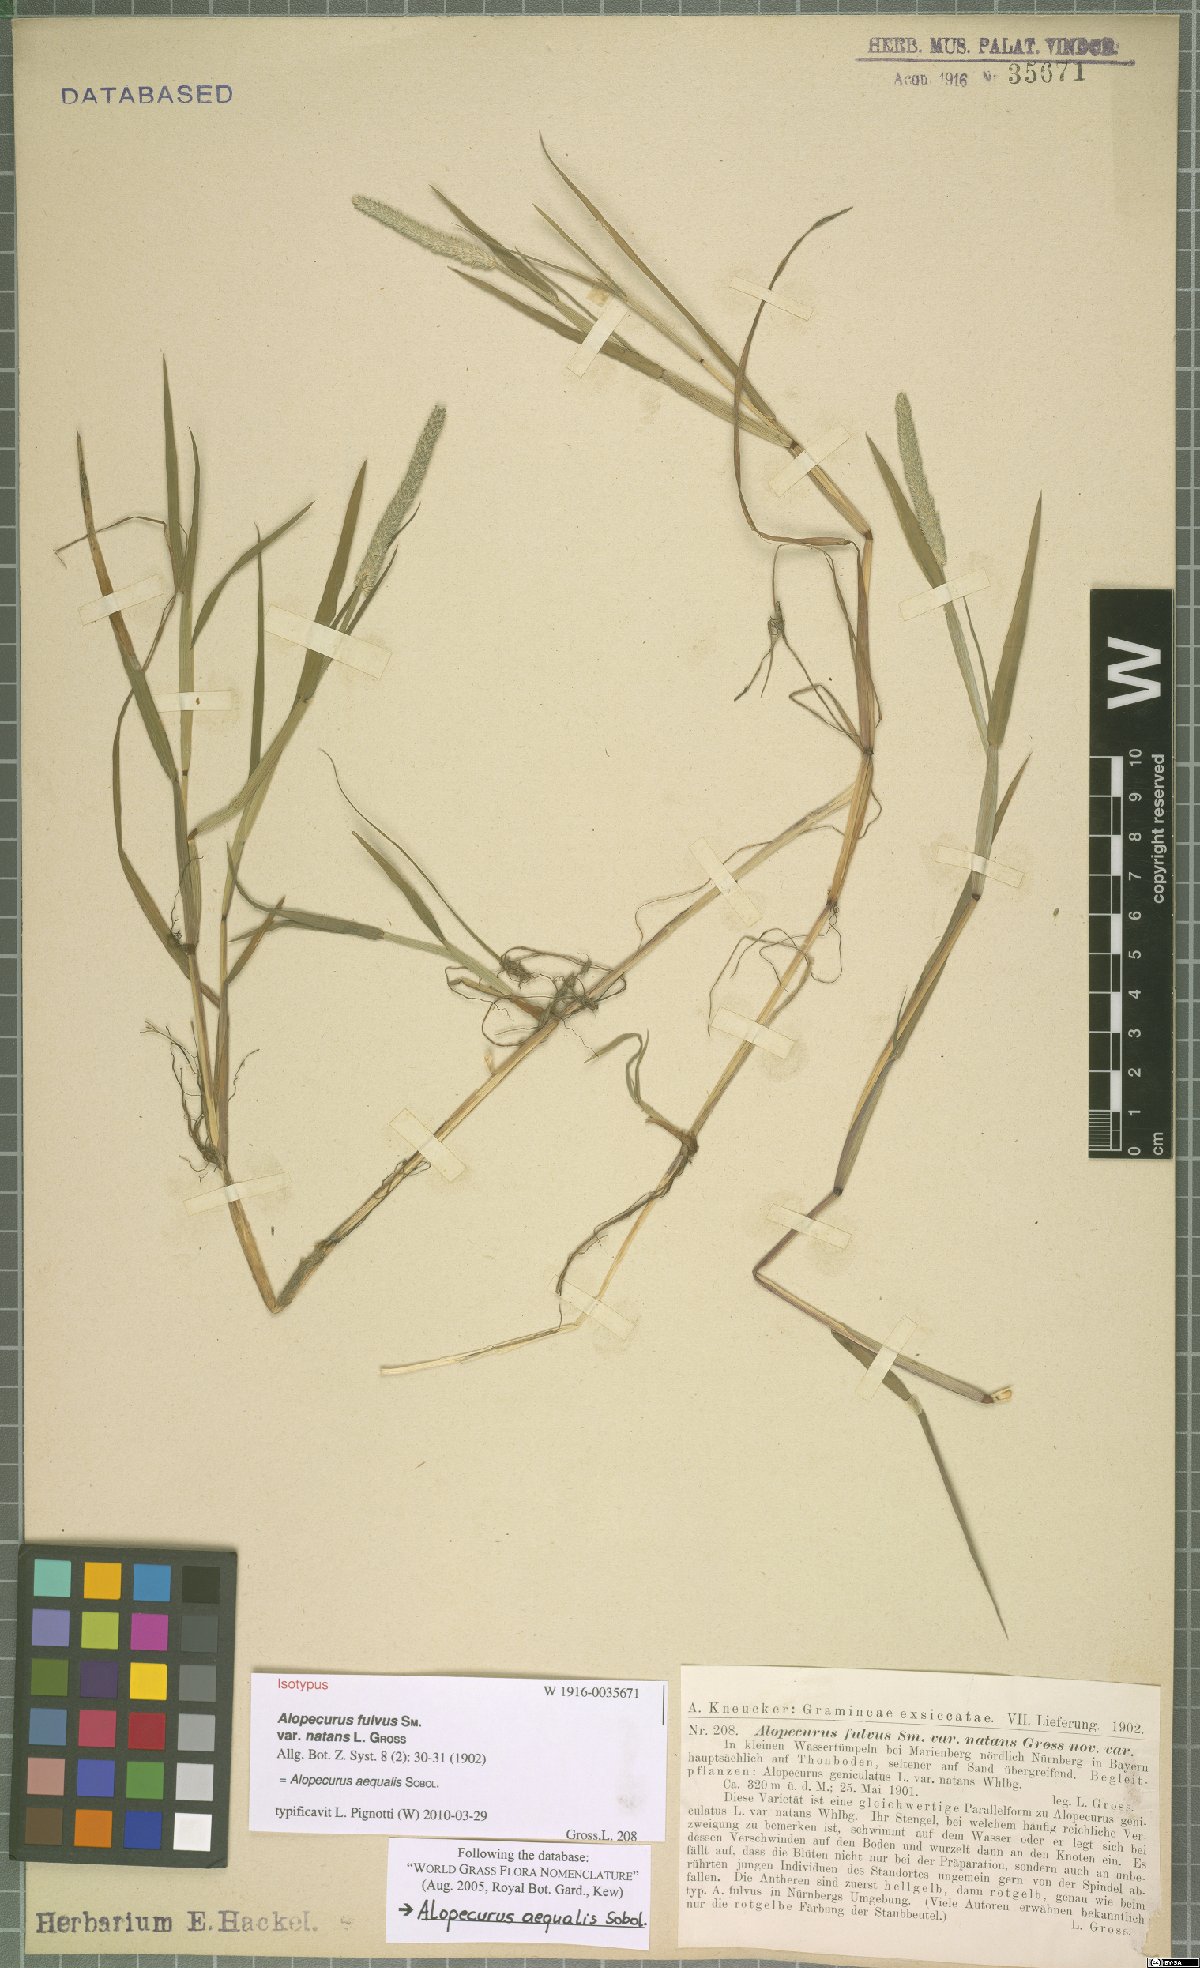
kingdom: Plantae
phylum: Tracheophyta
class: Liliopsida
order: Poales
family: Poaceae
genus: Alopecurus
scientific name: Alopecurus aequalis
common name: Orange foxtail
